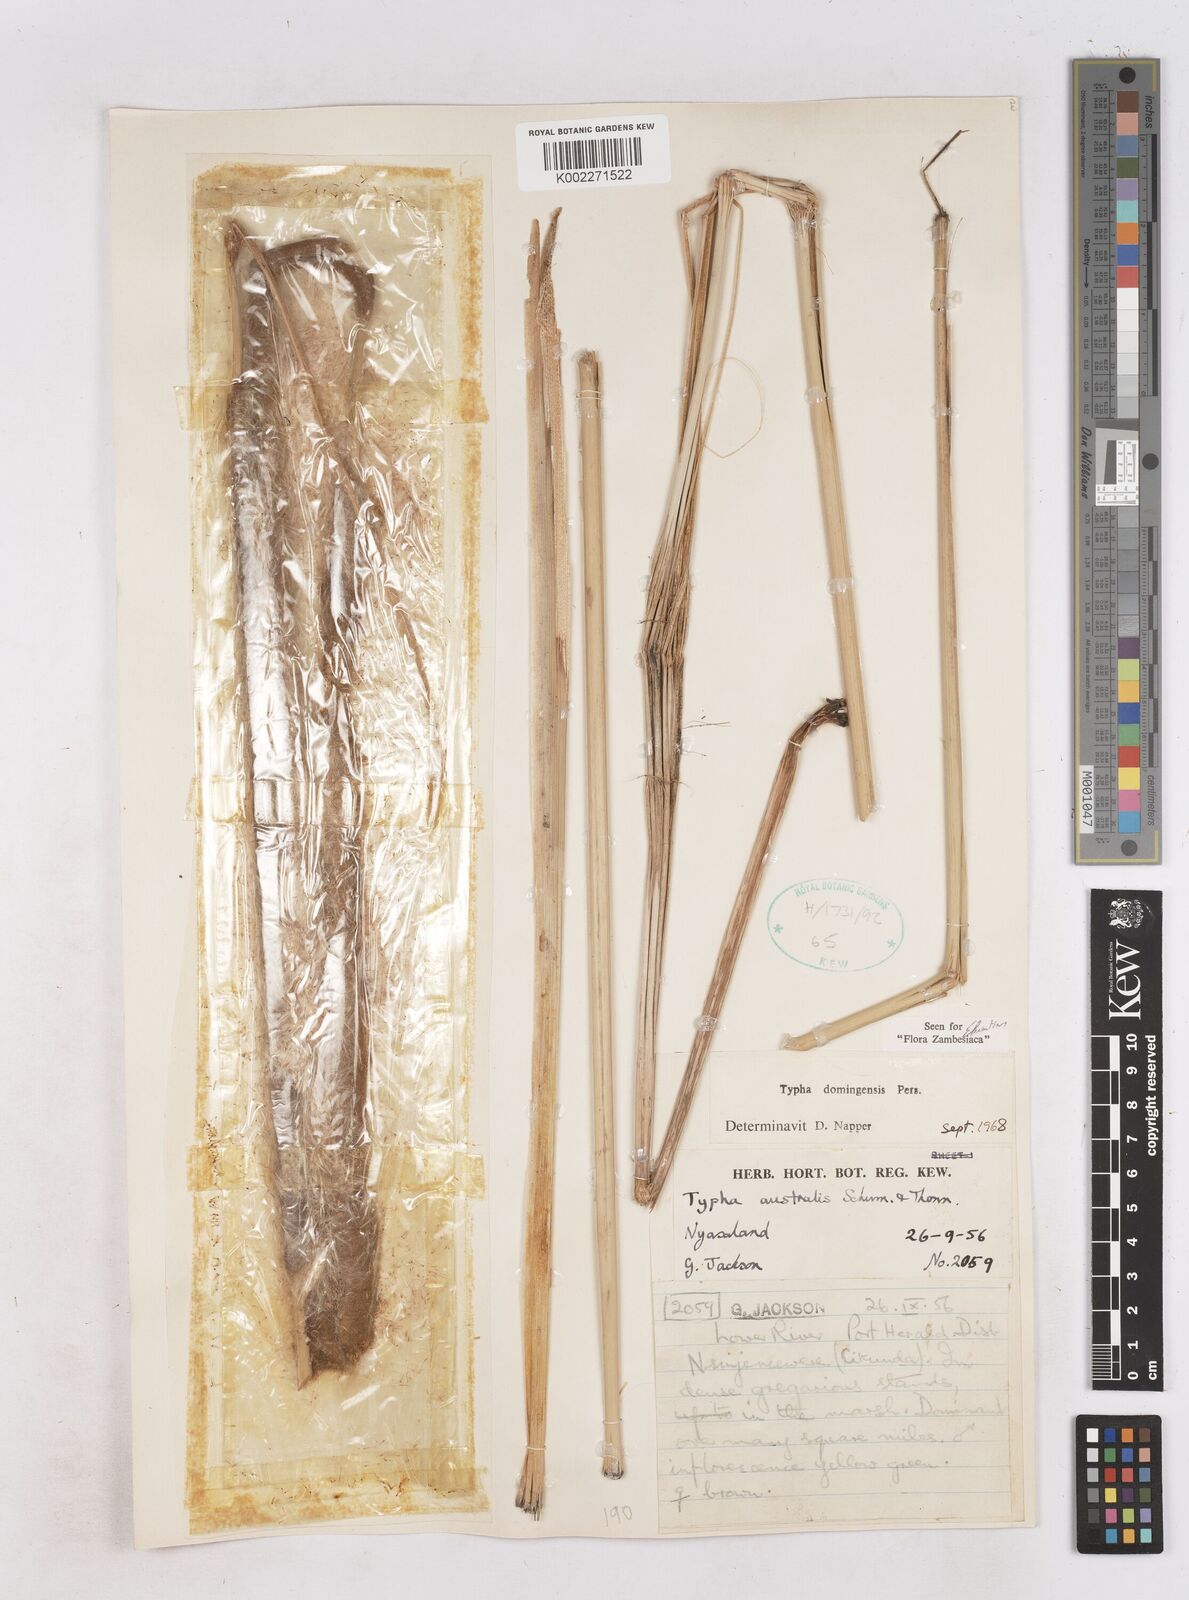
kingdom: Plantae
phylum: Tracheophyta
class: Liliopsida
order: Poales
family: Typhaceae
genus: Typha
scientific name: Typha domingensis
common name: Southern cattail
